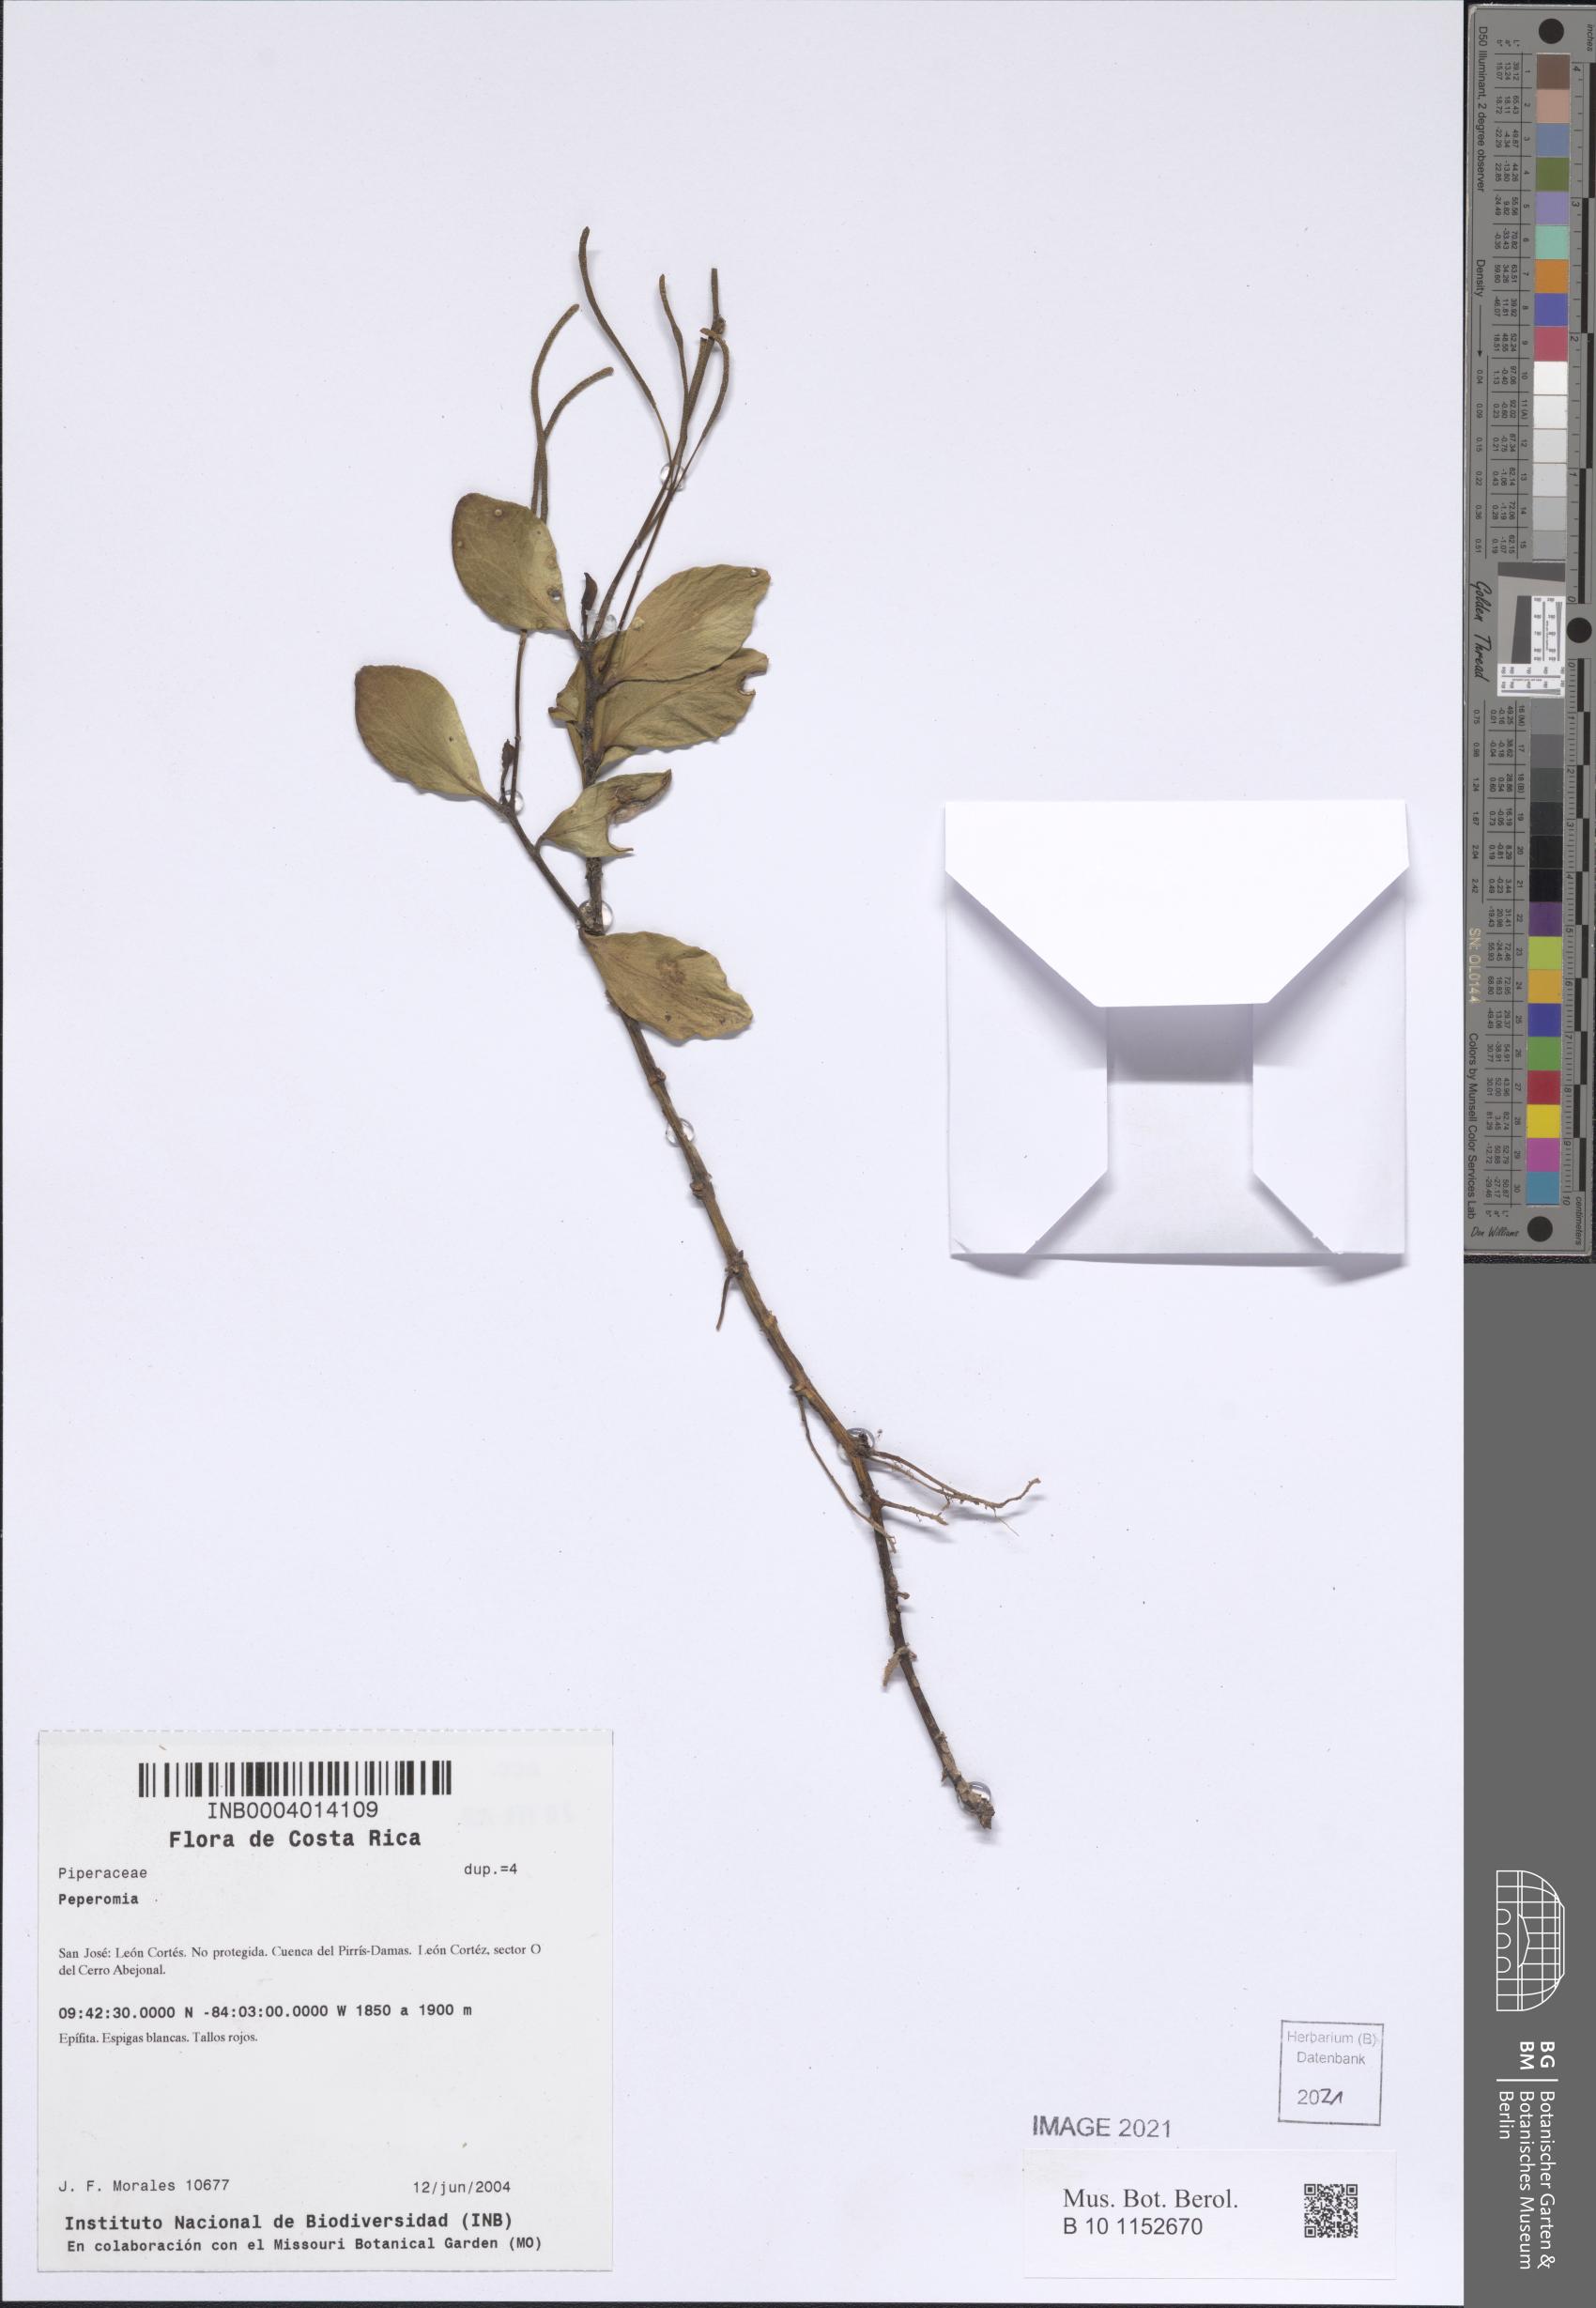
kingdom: Plantae
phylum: Tracheophyta
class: Magnoliopsida
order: Piperales
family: Piperaceae
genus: Peperomia
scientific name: Peperomia
